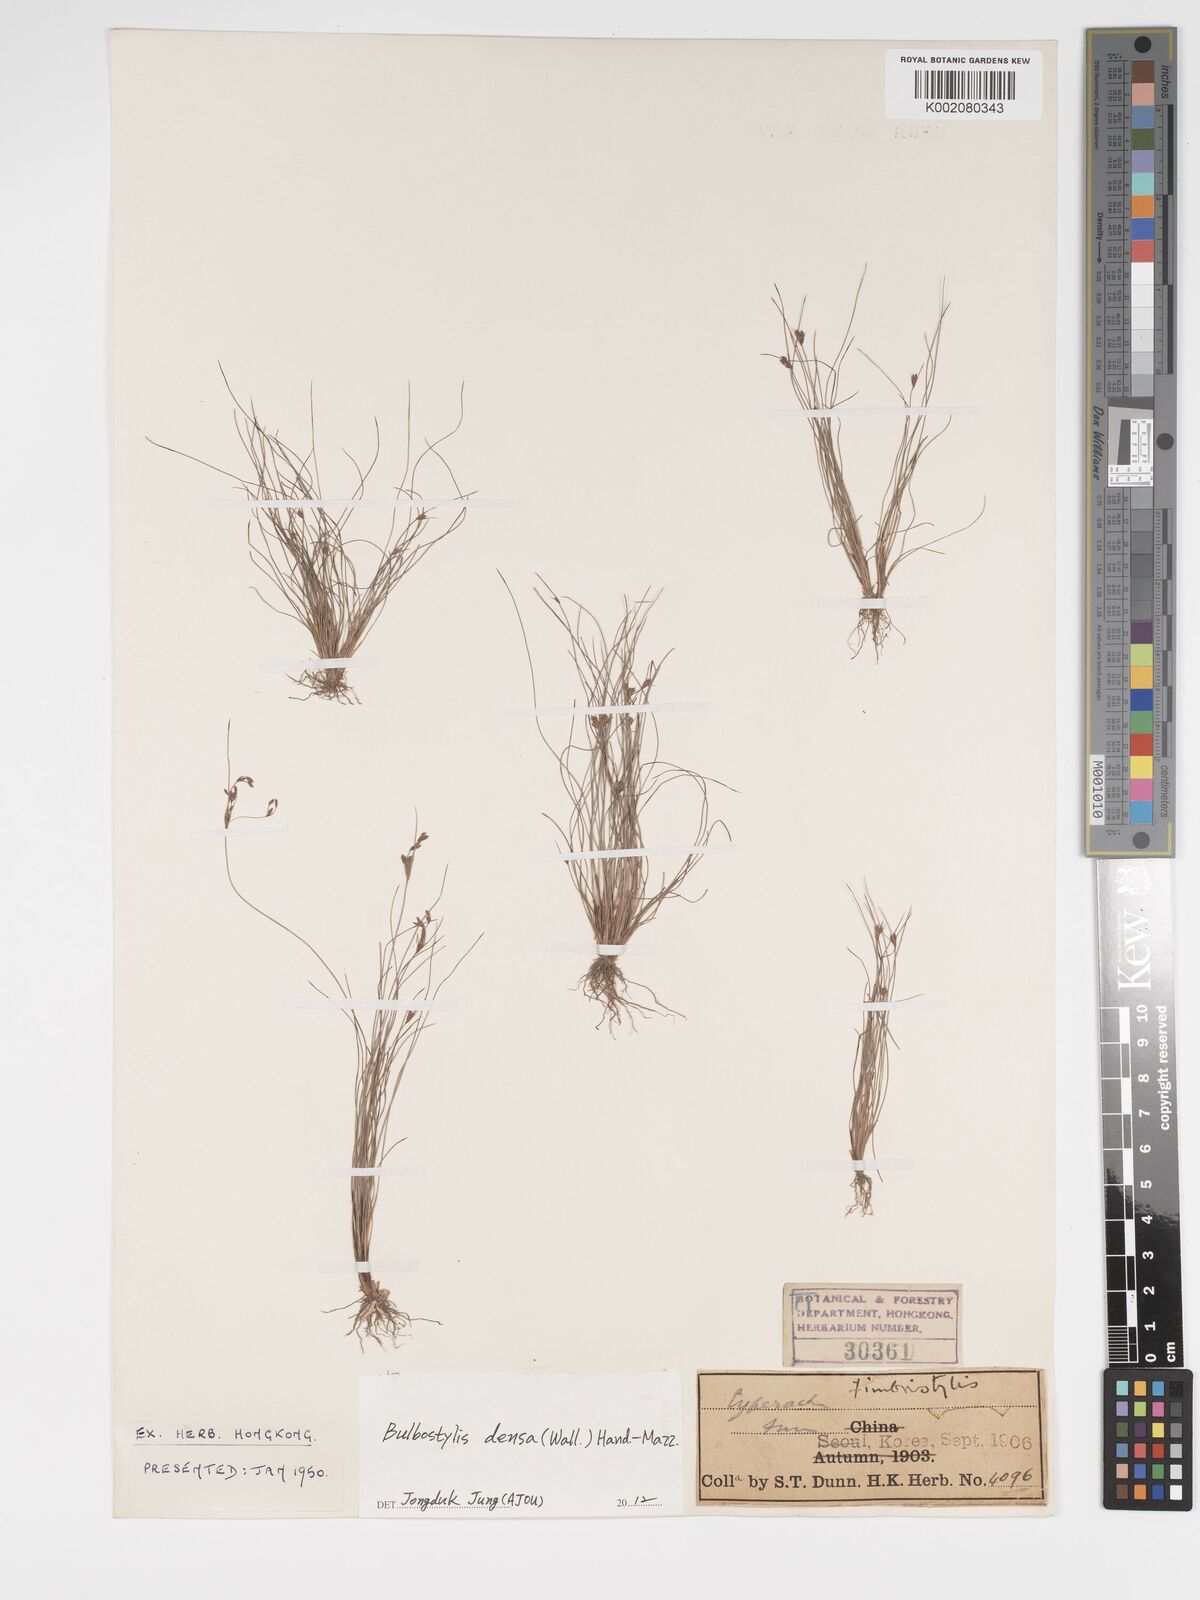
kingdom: Plantae
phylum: Tracheophyta
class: Liliopsida
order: Poales
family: Cyperaceae
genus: Bulbostylis
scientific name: Bulbostylis densa
